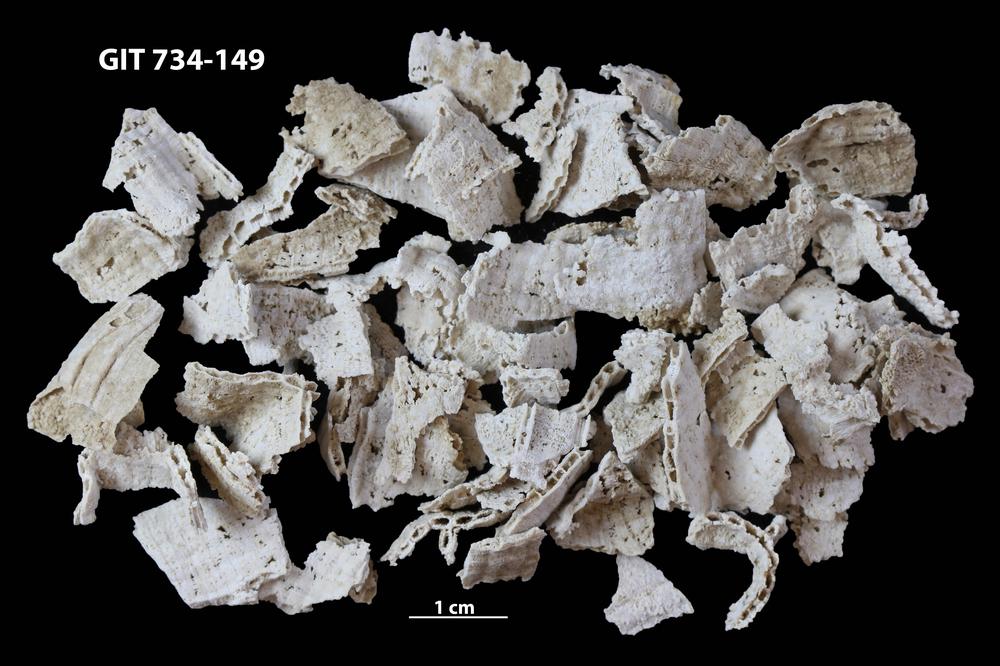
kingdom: Animalia
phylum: Cnidaria
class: Anthozoa
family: Cateniporidae
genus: Catenipora
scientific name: Catenipora
